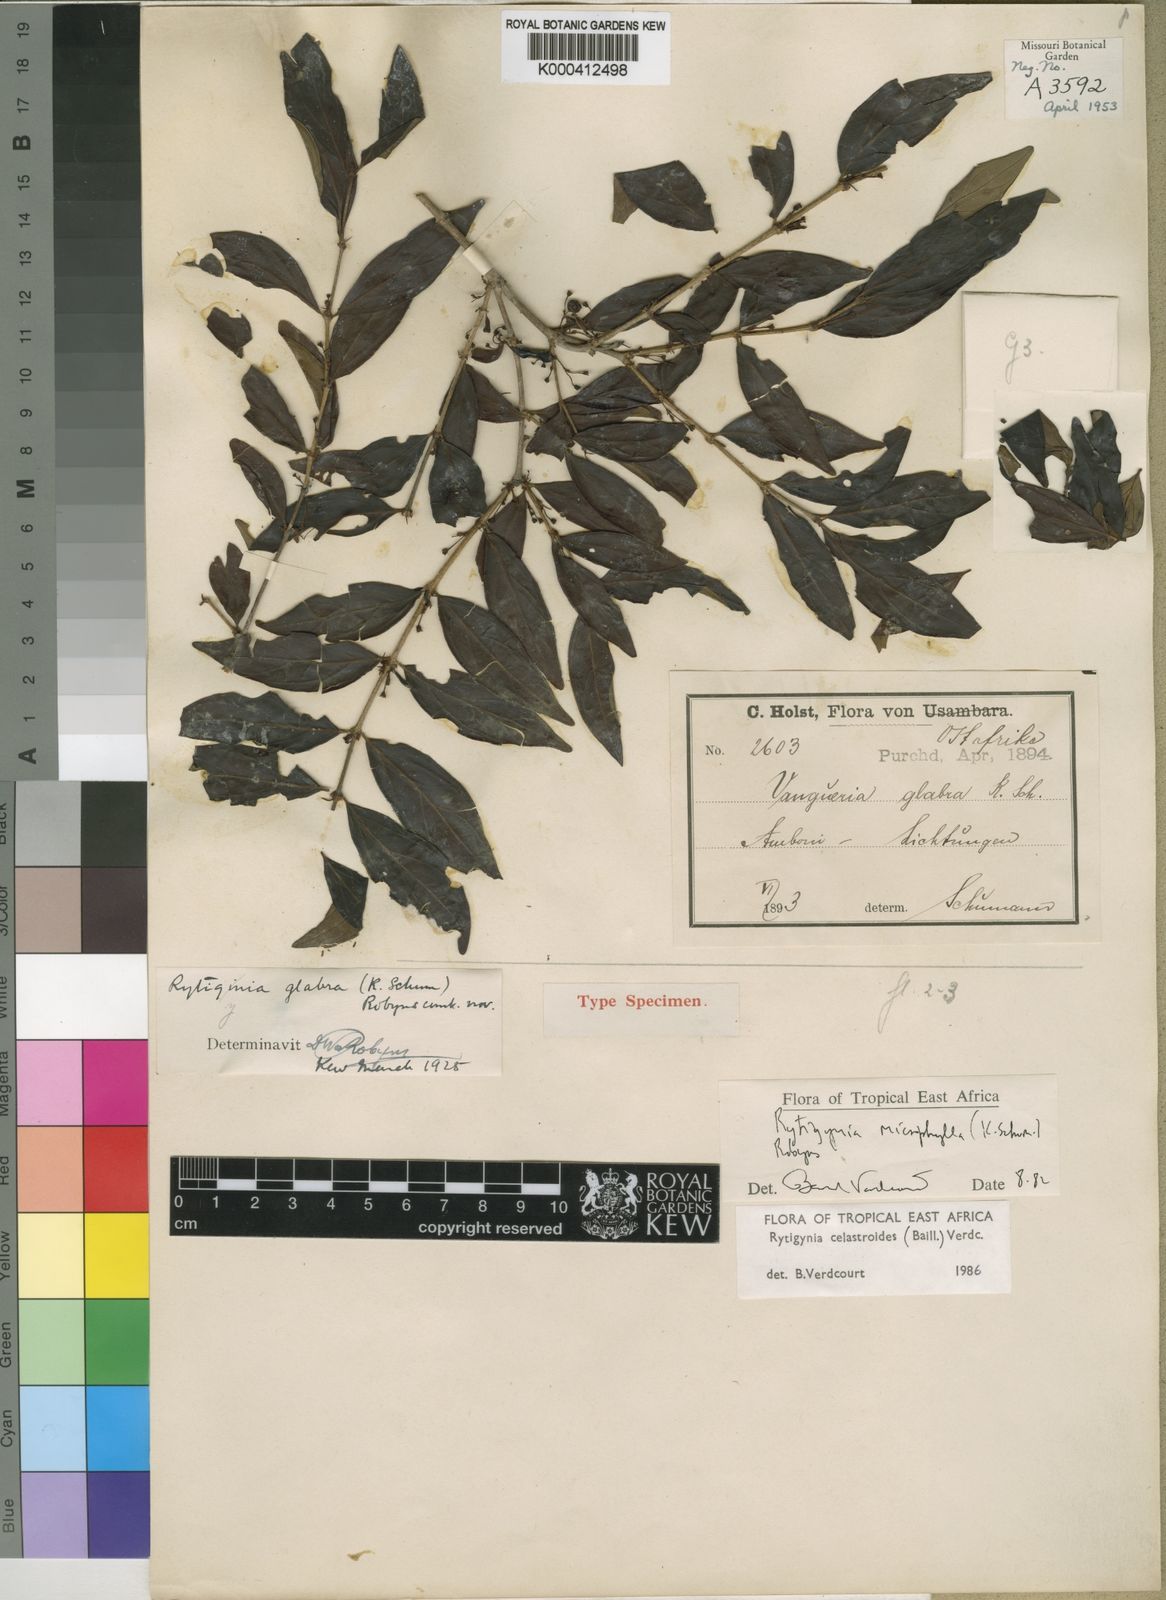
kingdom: Plantae
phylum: Tracheophyta
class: Magnoliopsida
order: Gentianales
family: Rubiaceae
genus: Rytigynia
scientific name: Rytigynia celastroides
